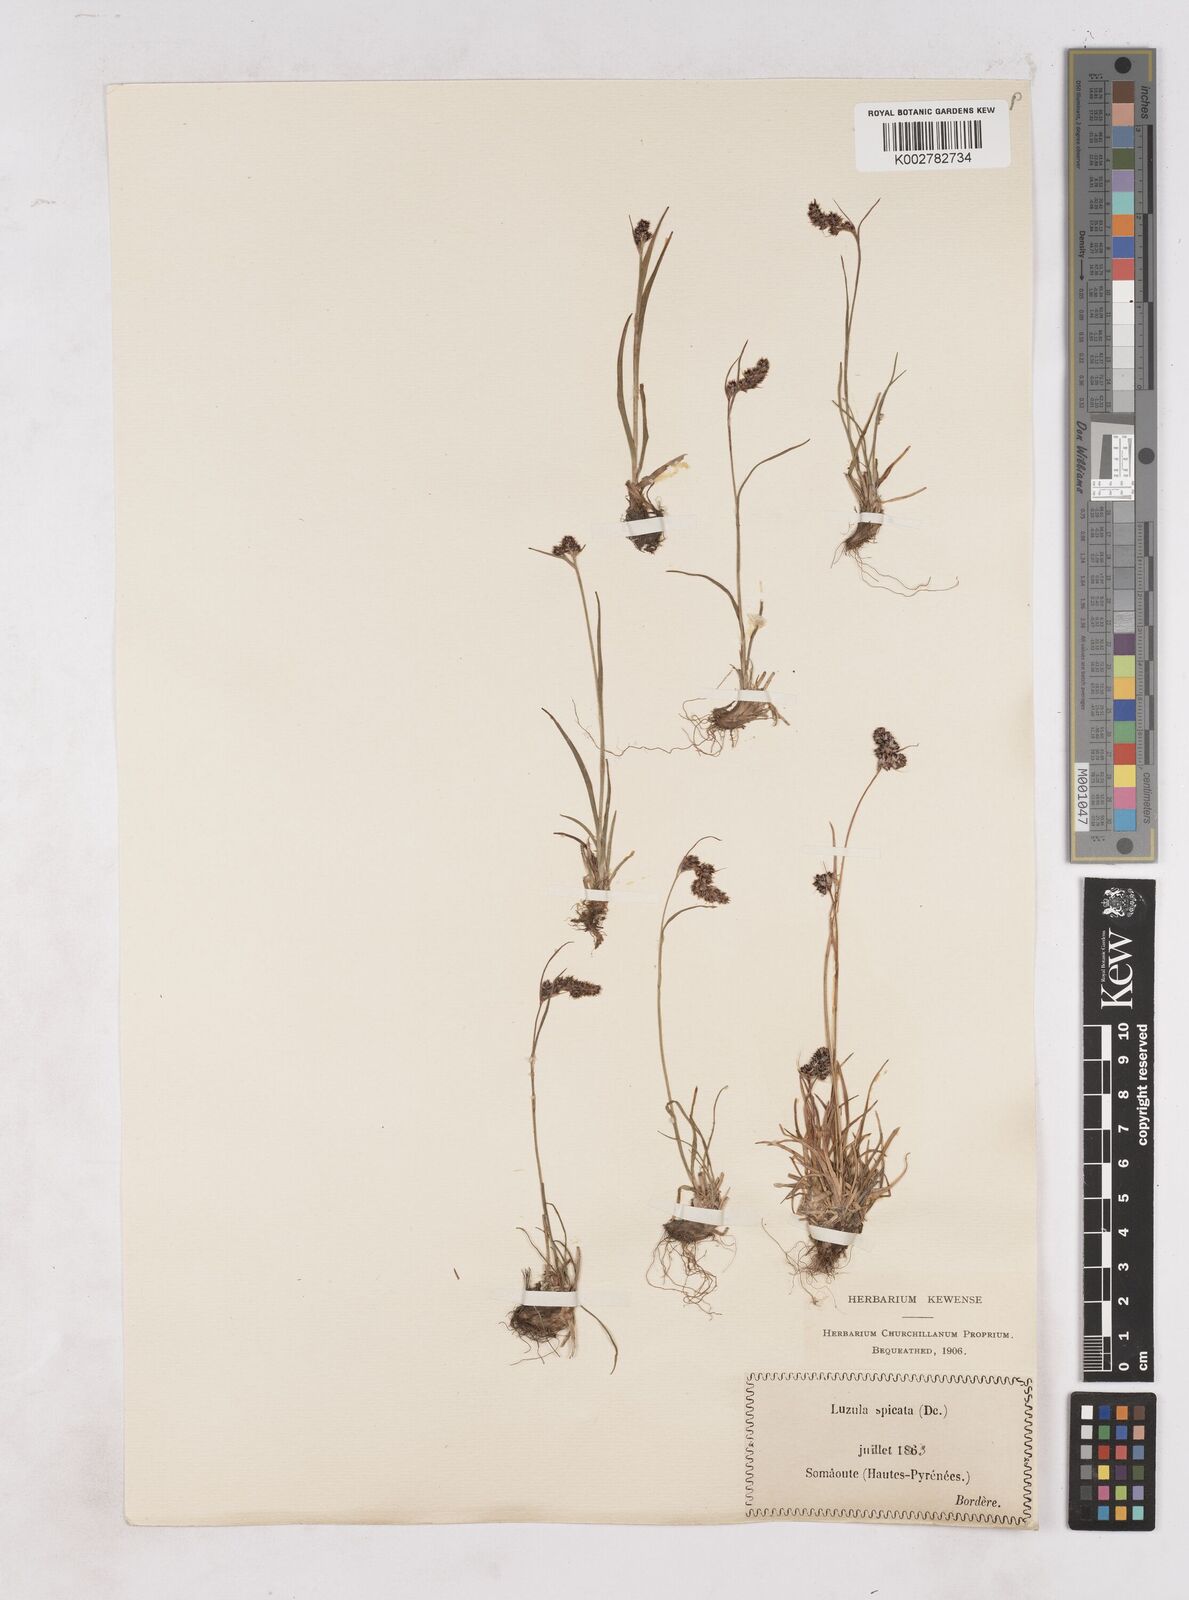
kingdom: Plantae
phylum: Tracheophyta
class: Liliopsida
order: Poales
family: Juncaceae
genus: Luzula
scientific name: Luzula spicata
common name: Spiked wood-rush
